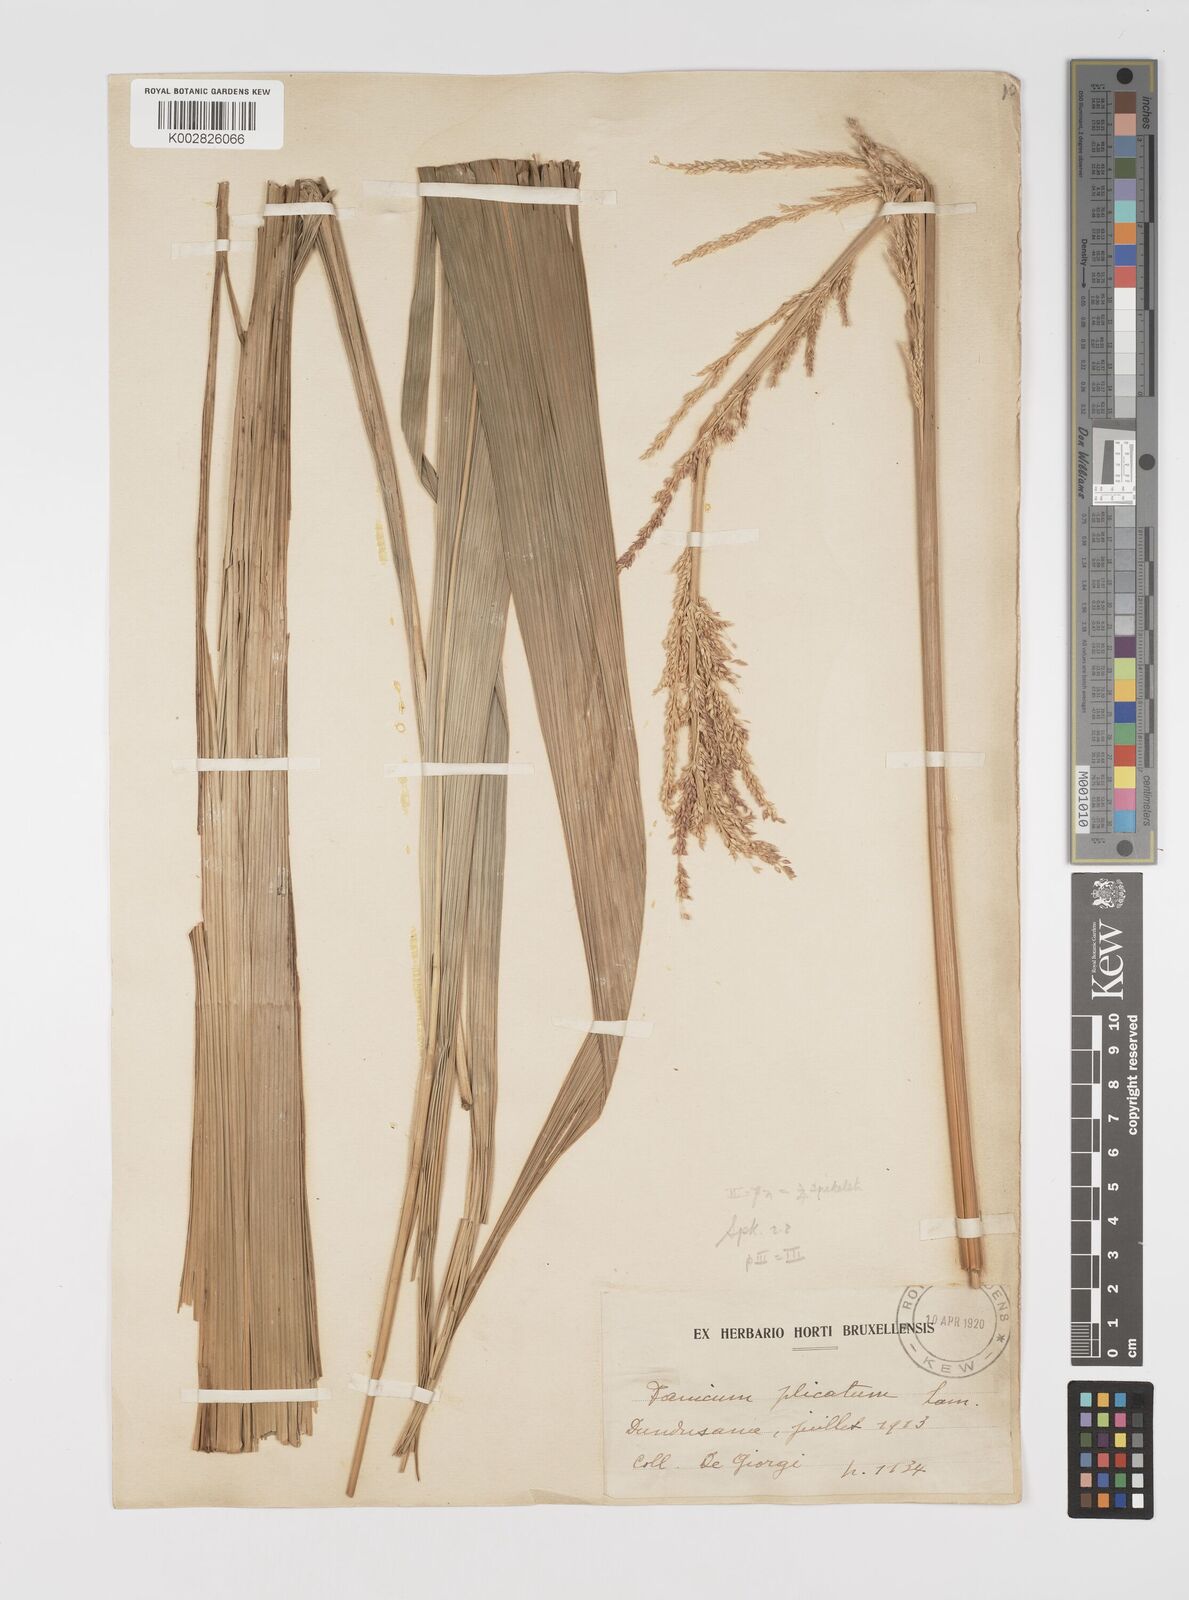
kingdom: Plantae
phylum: Tracheophyta
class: Liliopsida
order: Poales
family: Poaceae
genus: Setaria
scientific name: Setaria megaphylla
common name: Bigleaf bristlegrass
